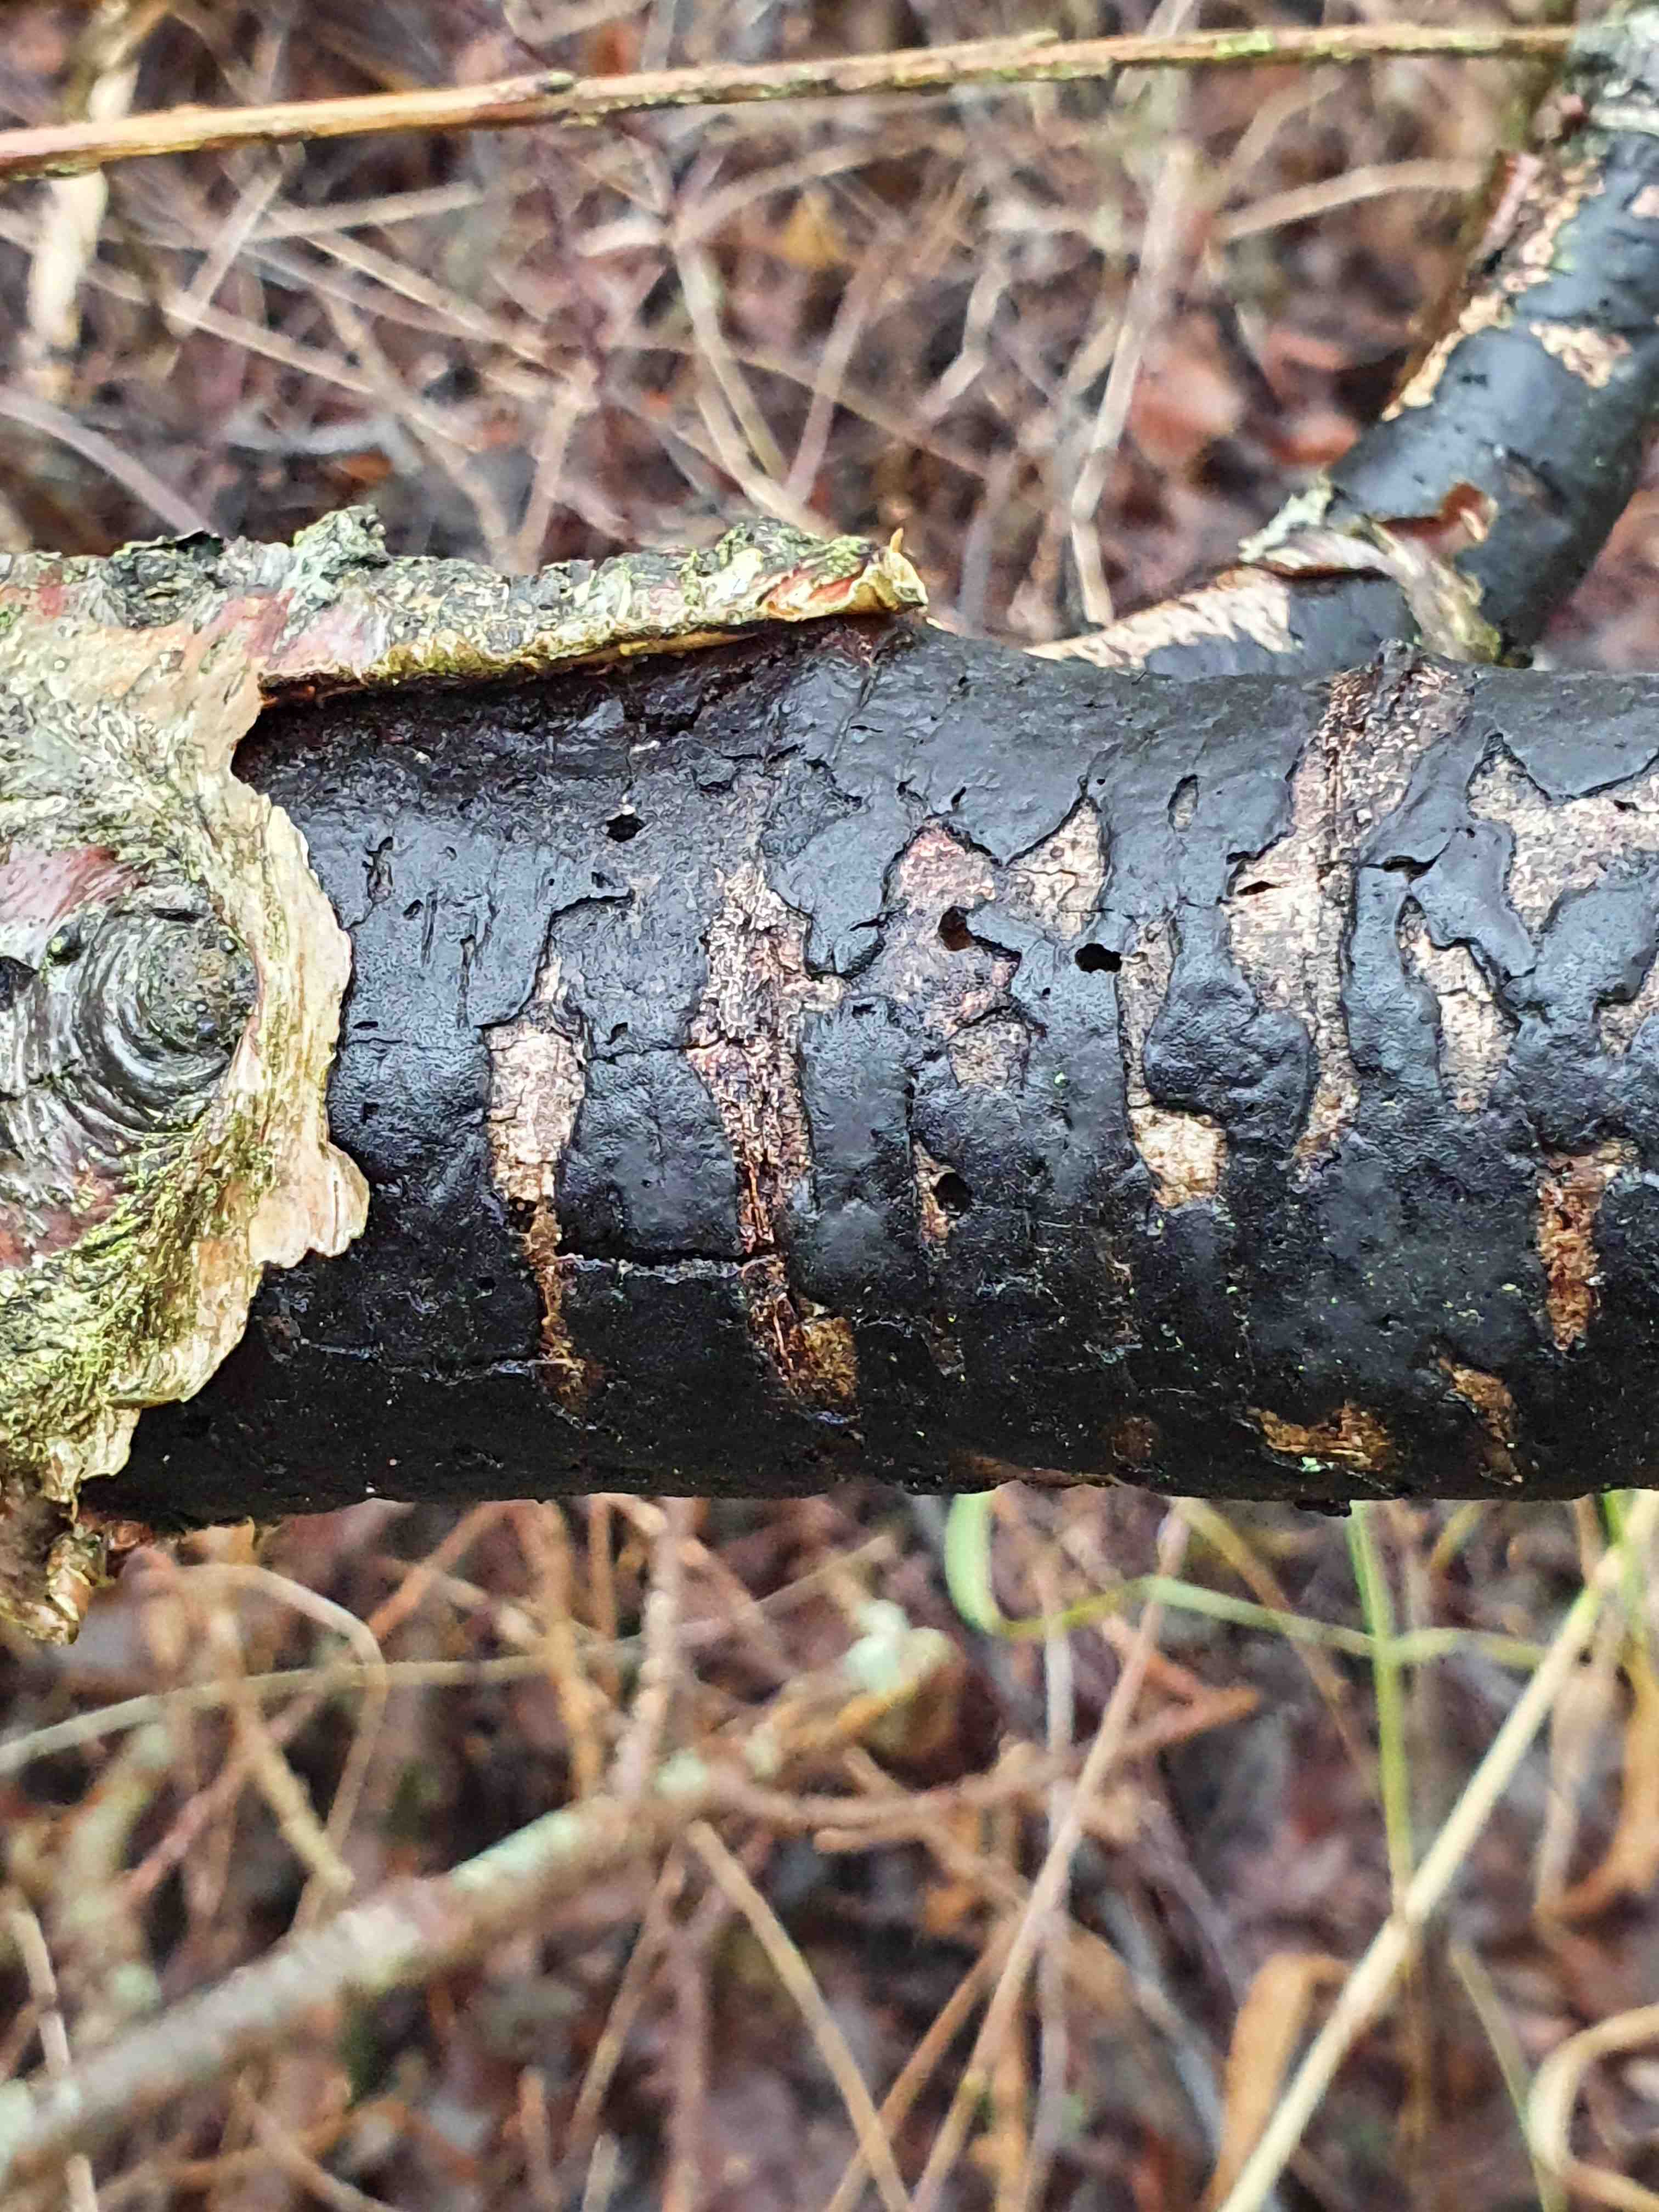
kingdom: Fungi
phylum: Ascomycota
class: Sordariomycetes
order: Xylariales
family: Diatrypaceae
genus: Diatrype
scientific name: Diatrype
